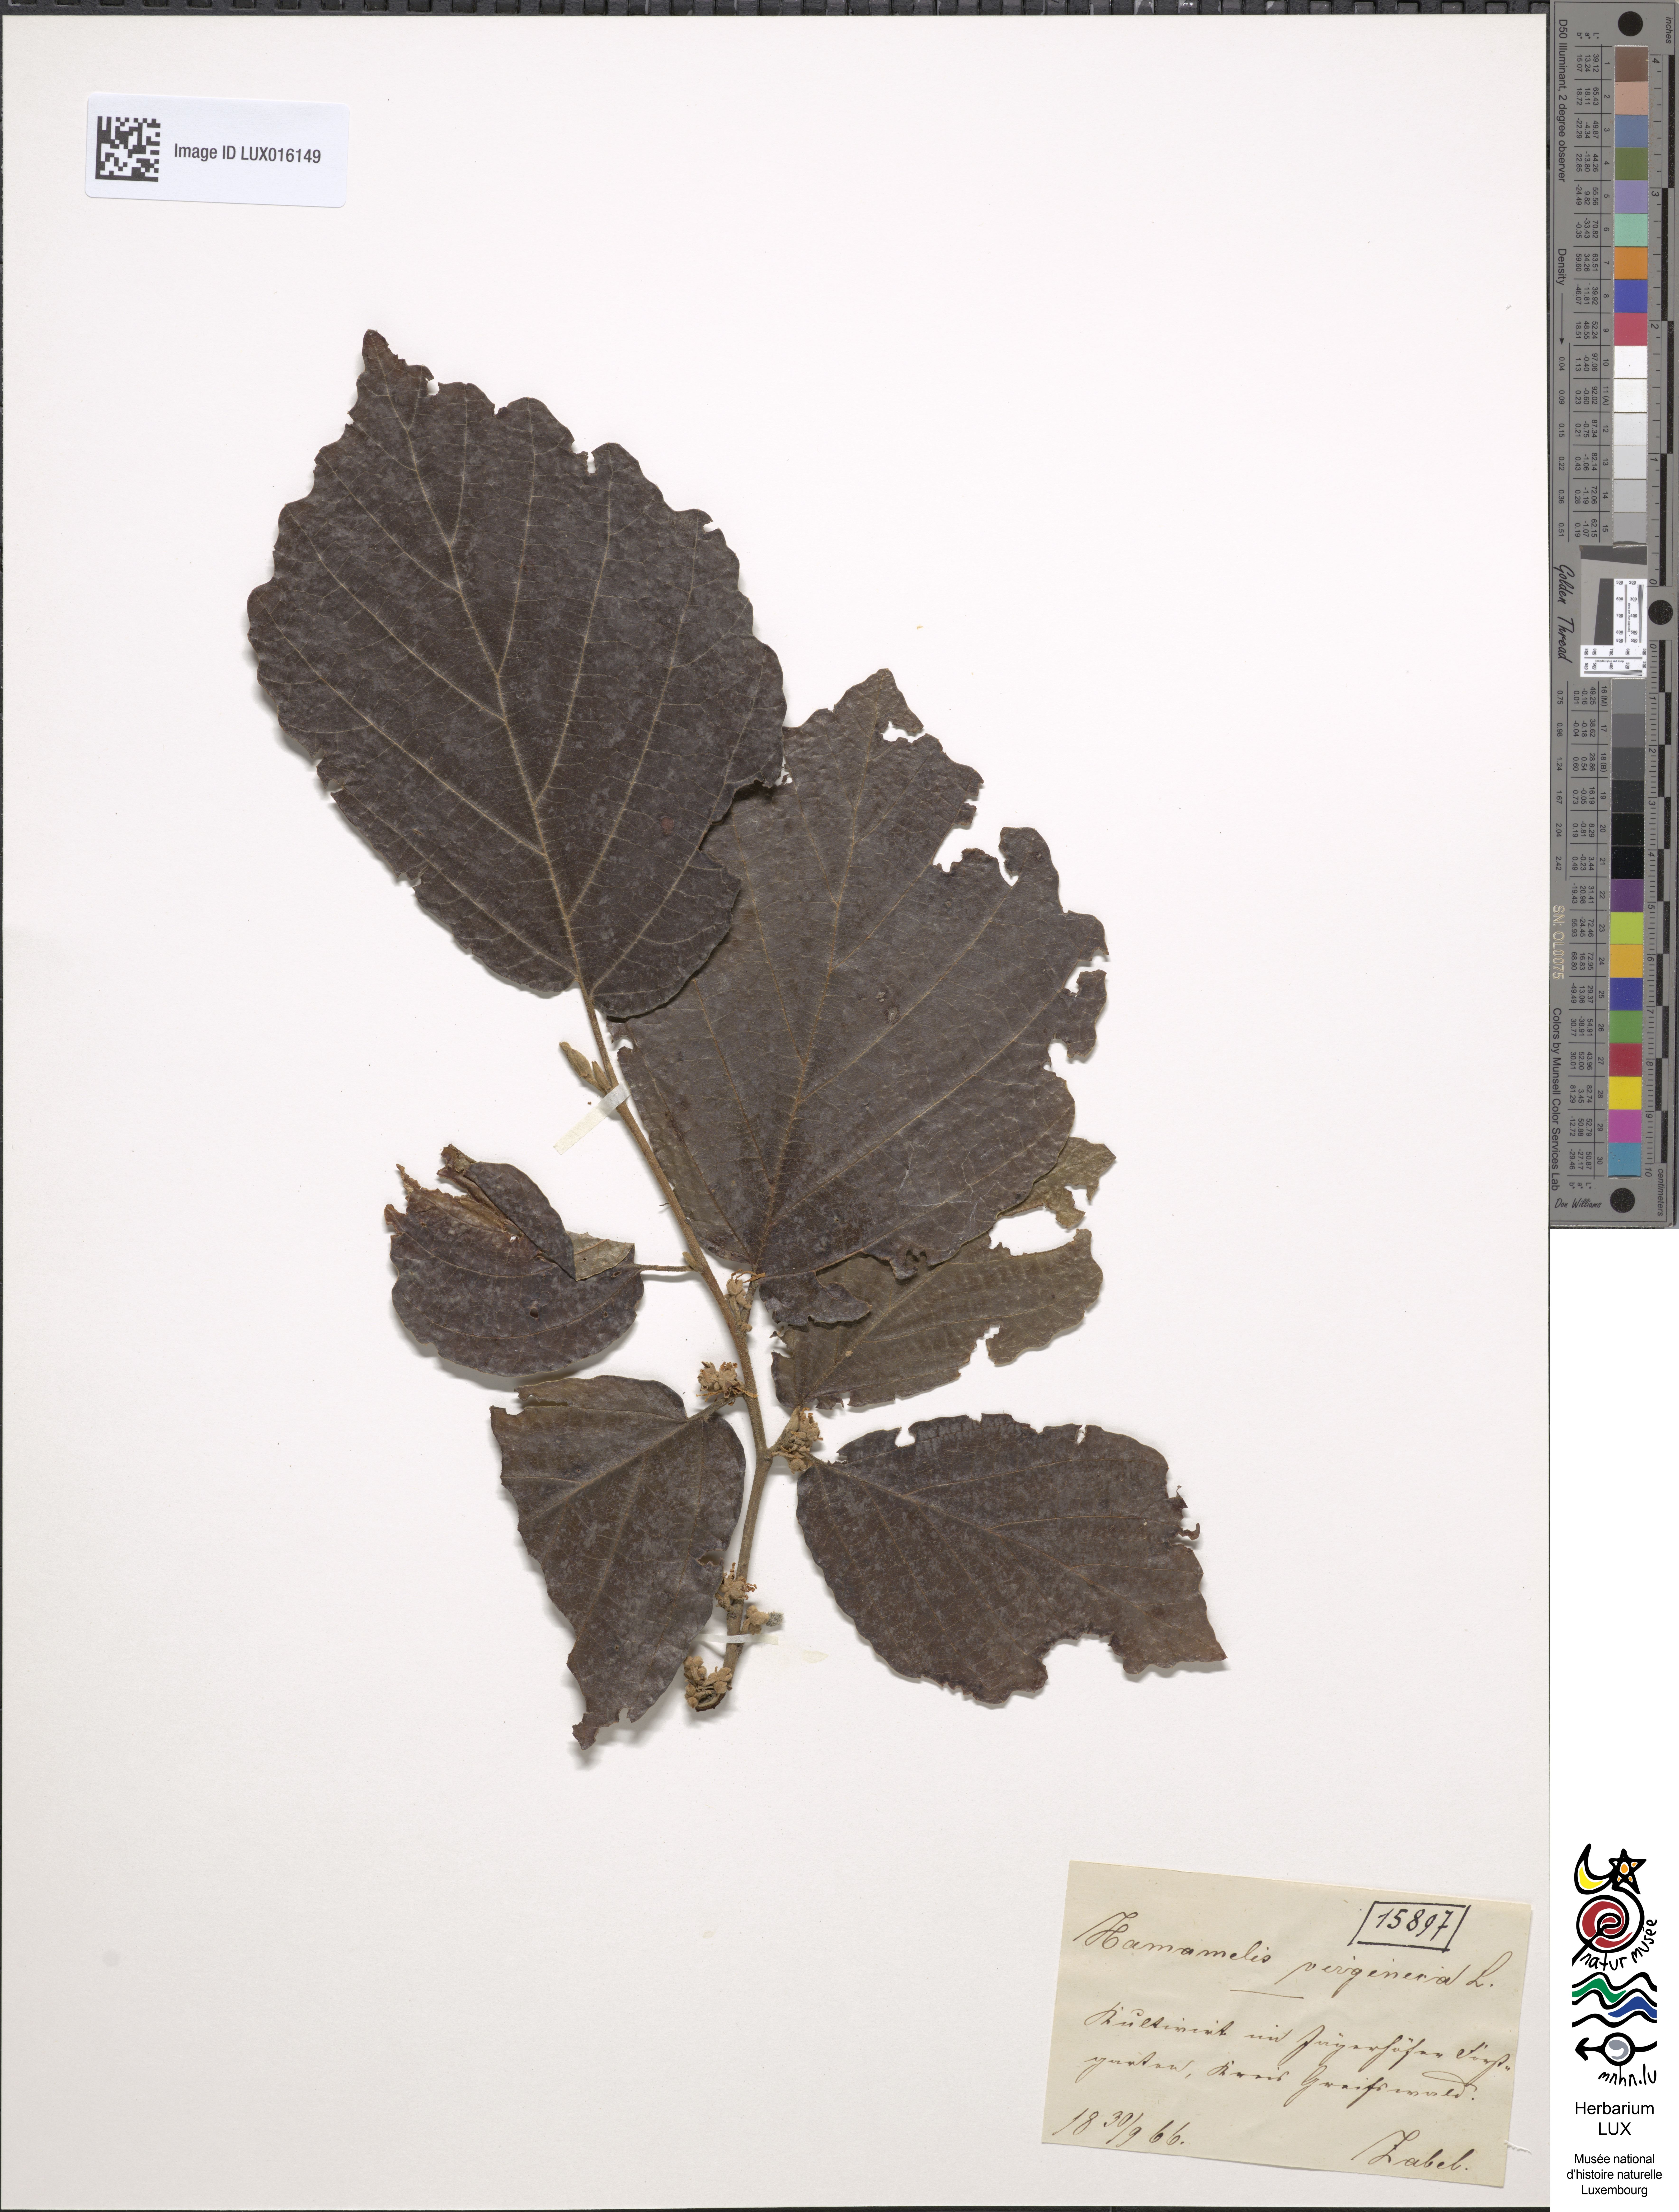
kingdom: Plantae
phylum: Tracheophyta
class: Magnoliopsida
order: Saxifragales
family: Hamamelidaceae
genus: Hamamelis
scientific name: Hamamelis virginiana
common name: Witch-hazel
